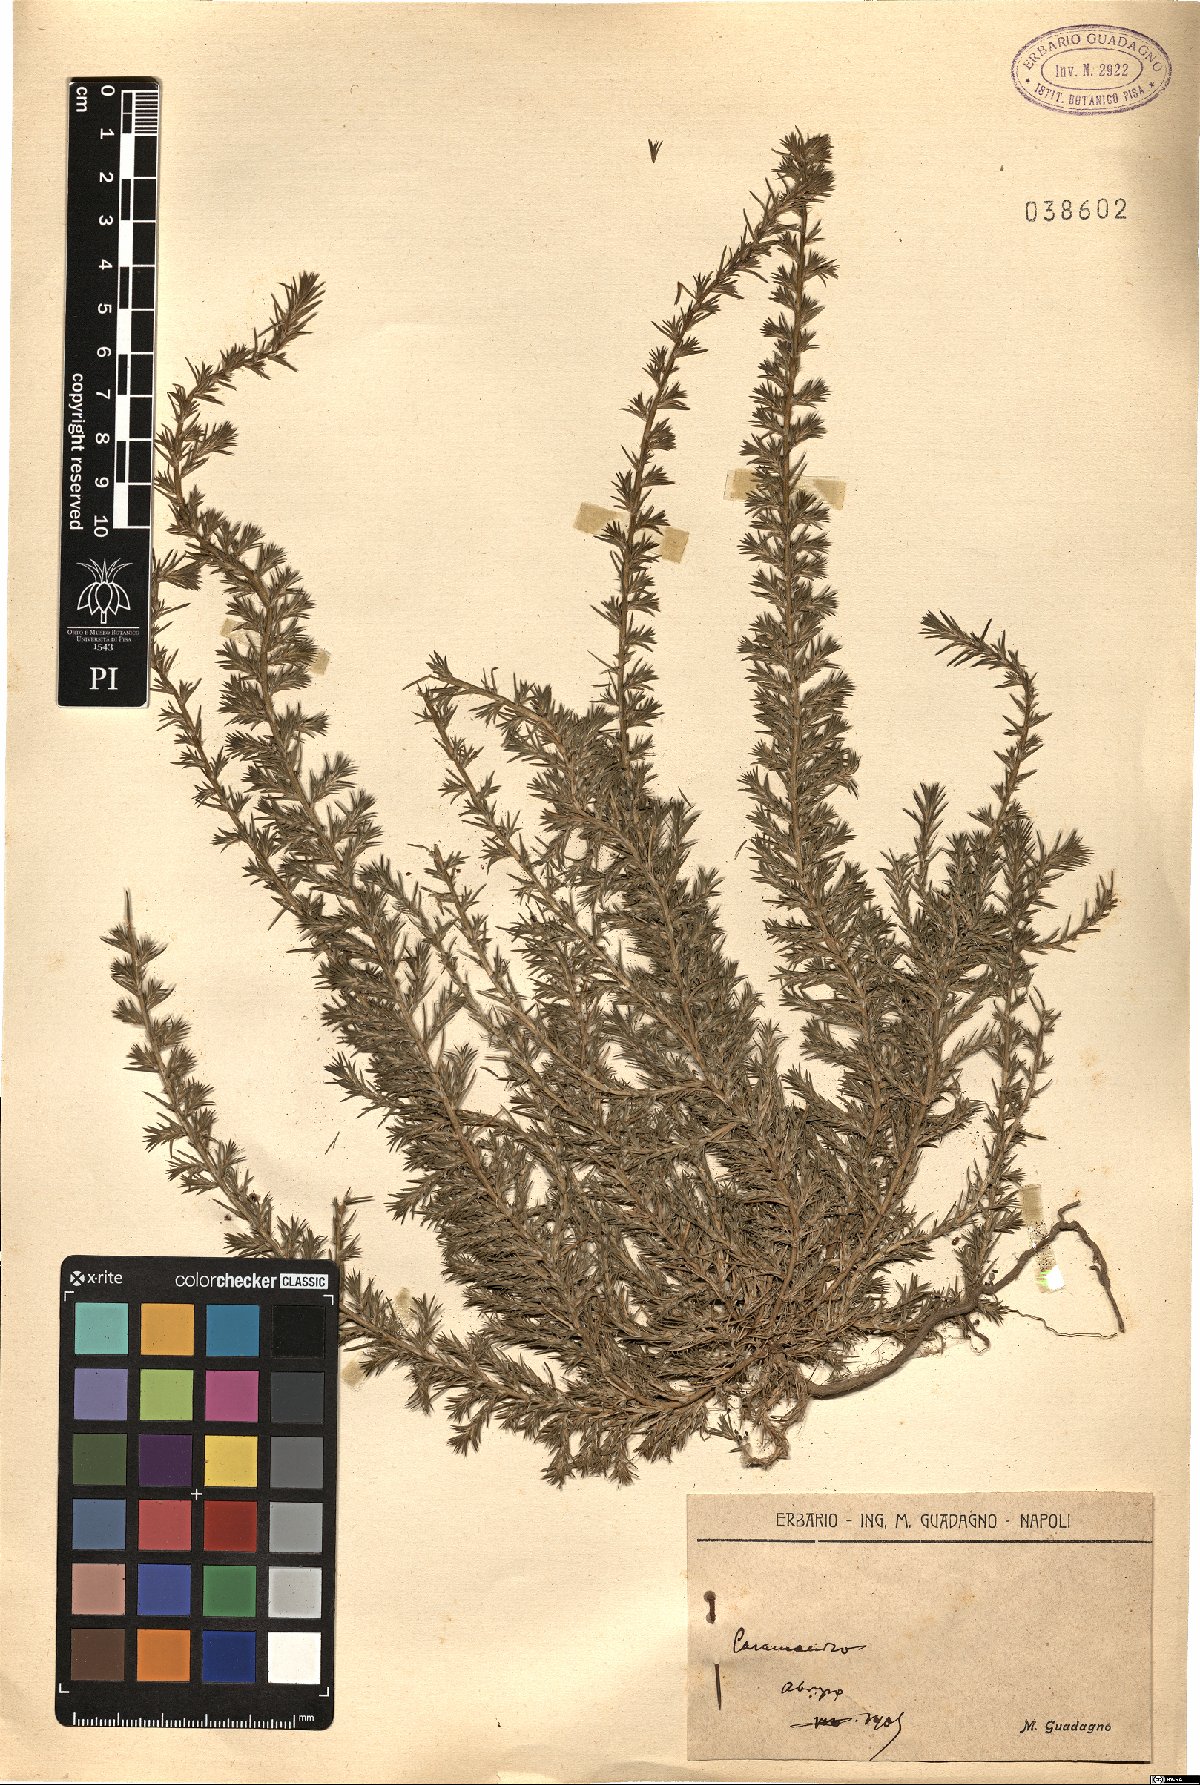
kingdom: Plantae
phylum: Tracheophyta
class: Magnoliopsida
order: Caryophyllales
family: Amaranthaceae
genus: Polycnemum
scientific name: Polycnemum
